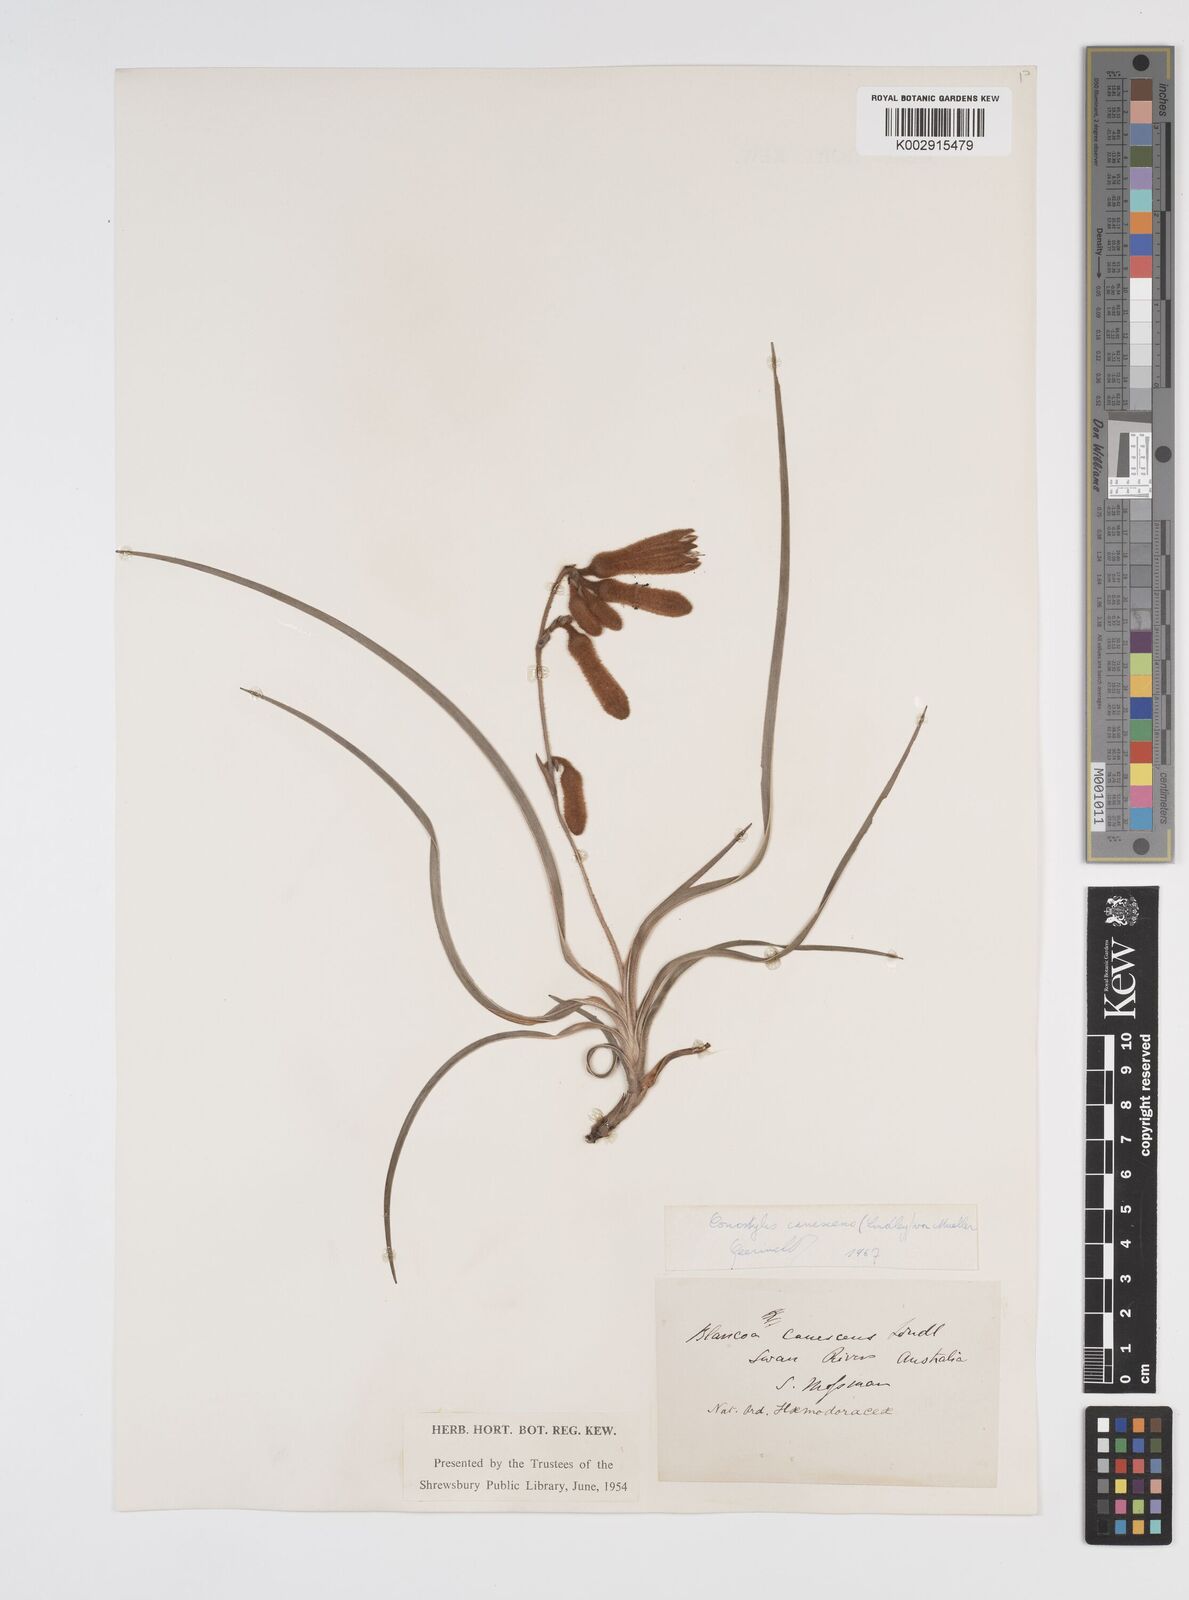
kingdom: Plantae
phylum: Tracheophyta
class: Liliopsida
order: Commelinales
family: Haemodoraceae
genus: Blancoa
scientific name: Blancoa canescens
